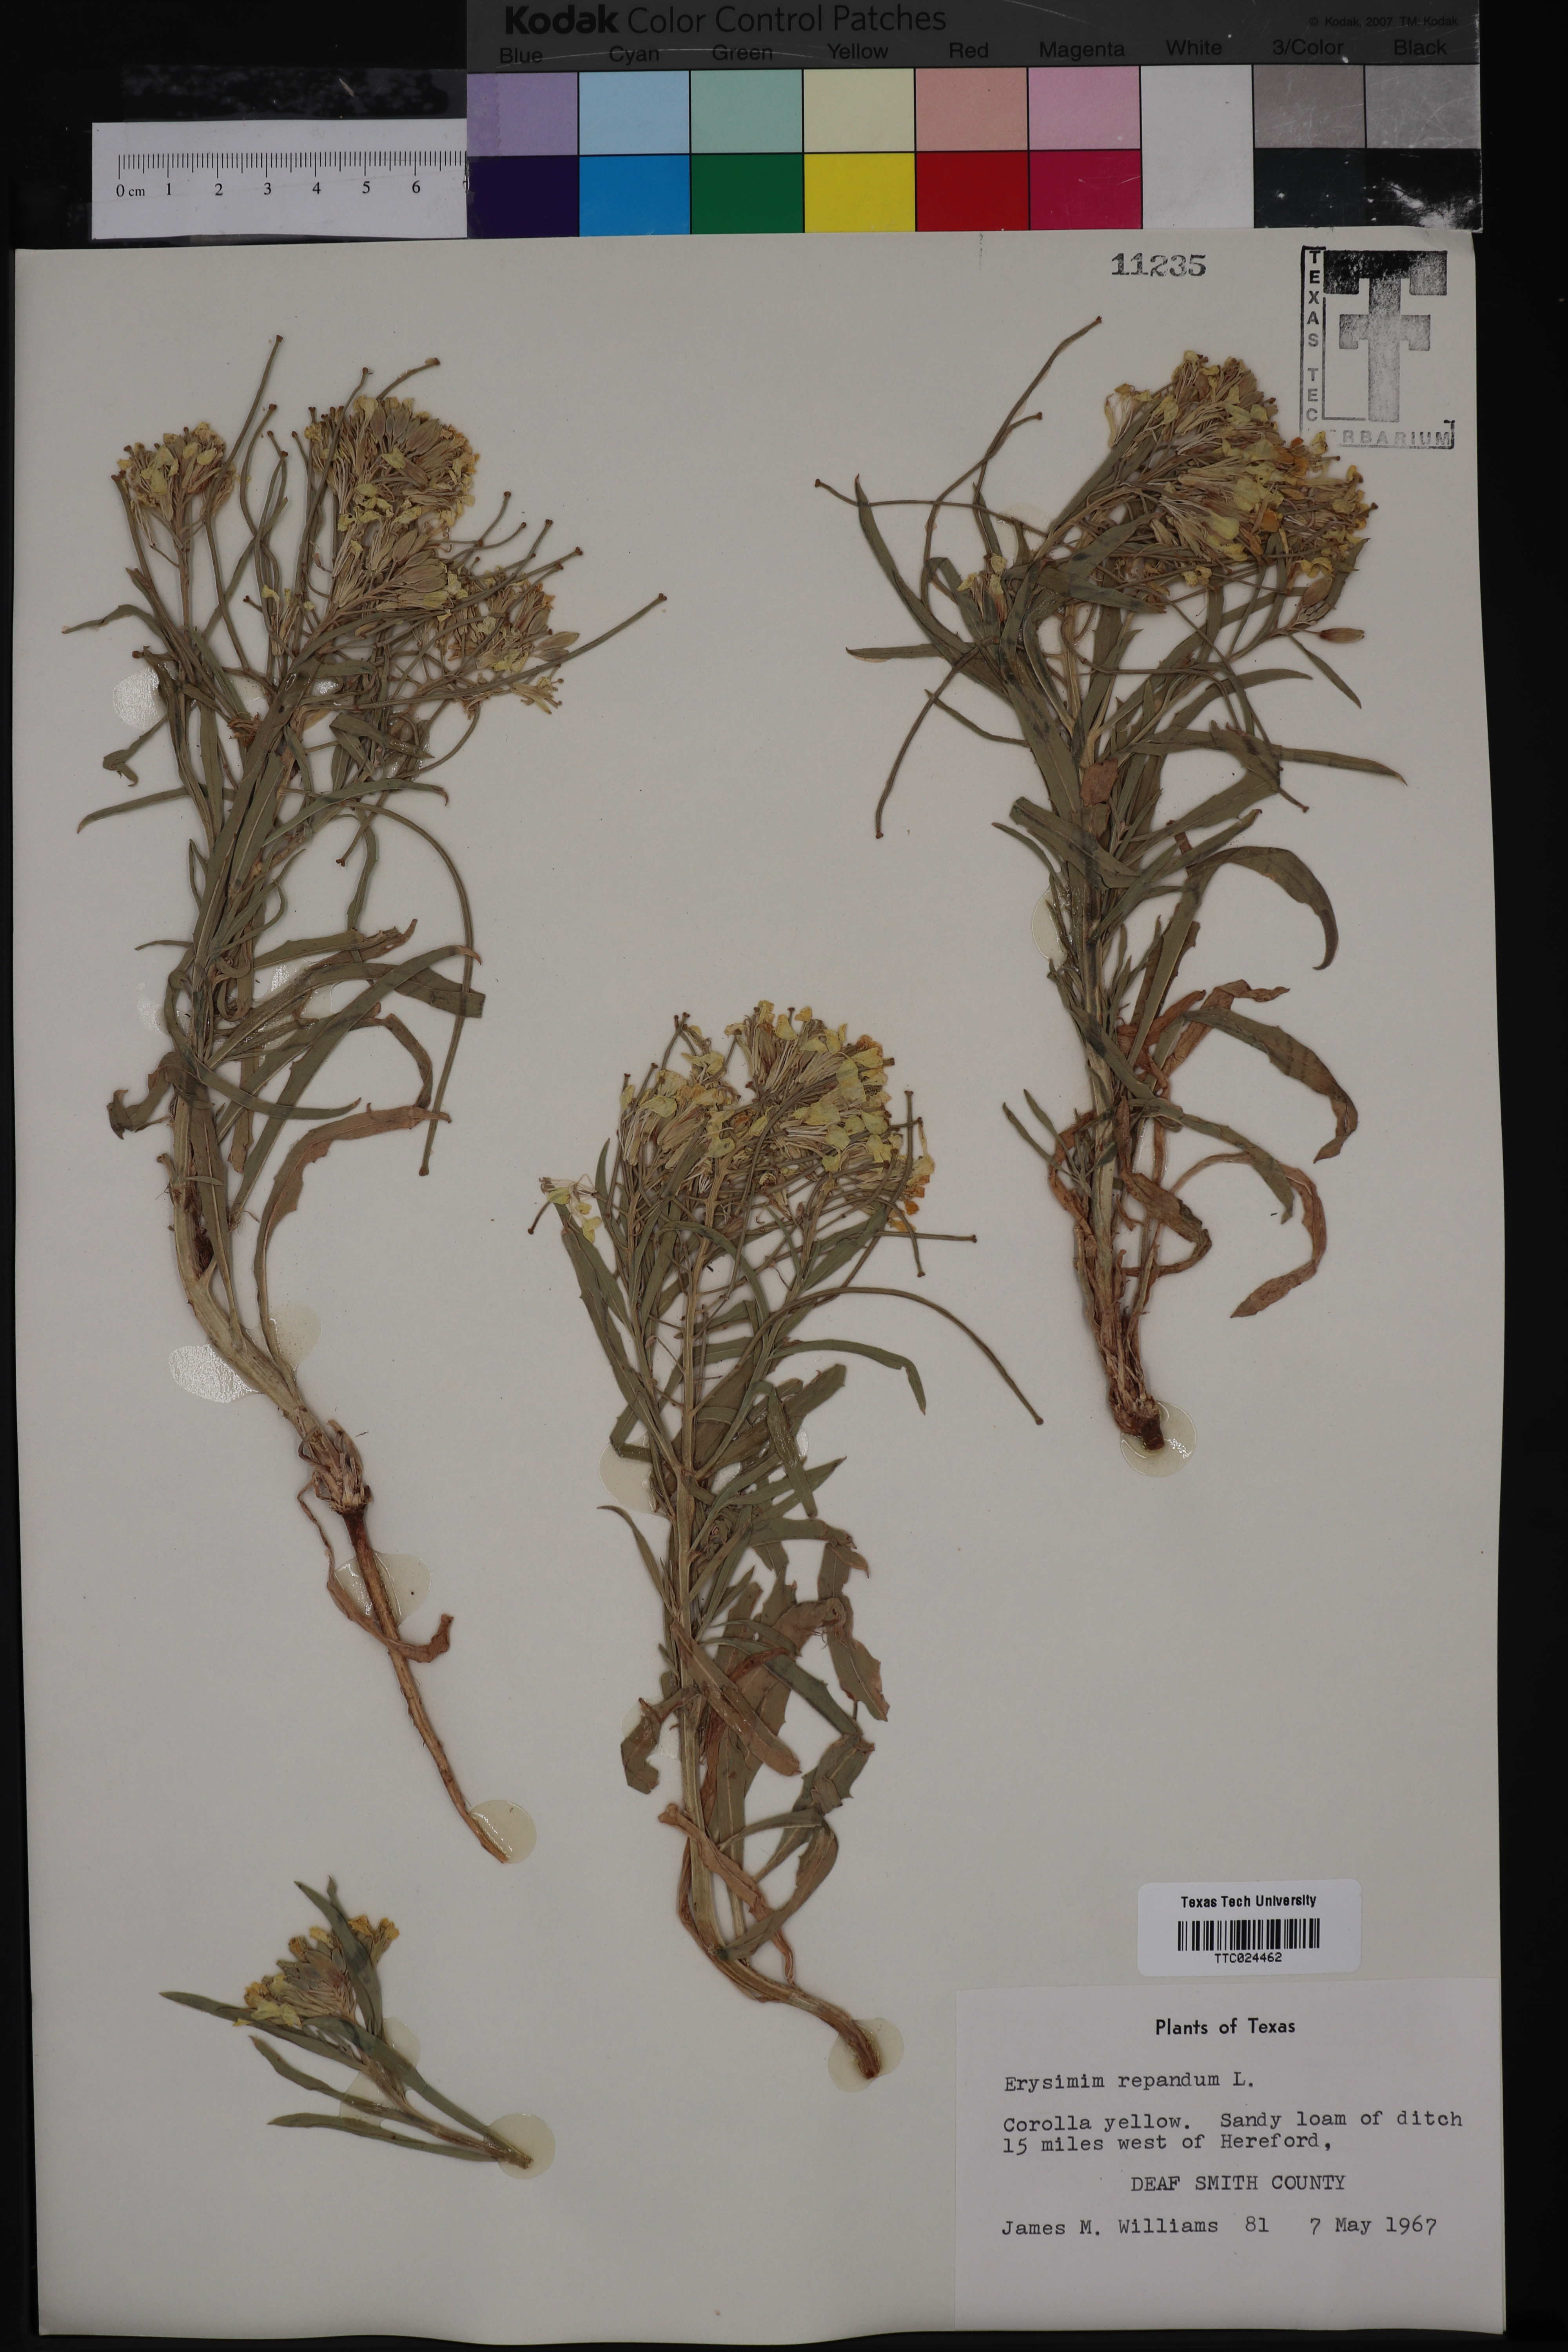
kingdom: Plantae
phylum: Tracheophyta
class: Magnoliopsida
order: Brassicales
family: Brassicaceae
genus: Erysimum
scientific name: Erysimum repandum
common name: Spreading wallflower
